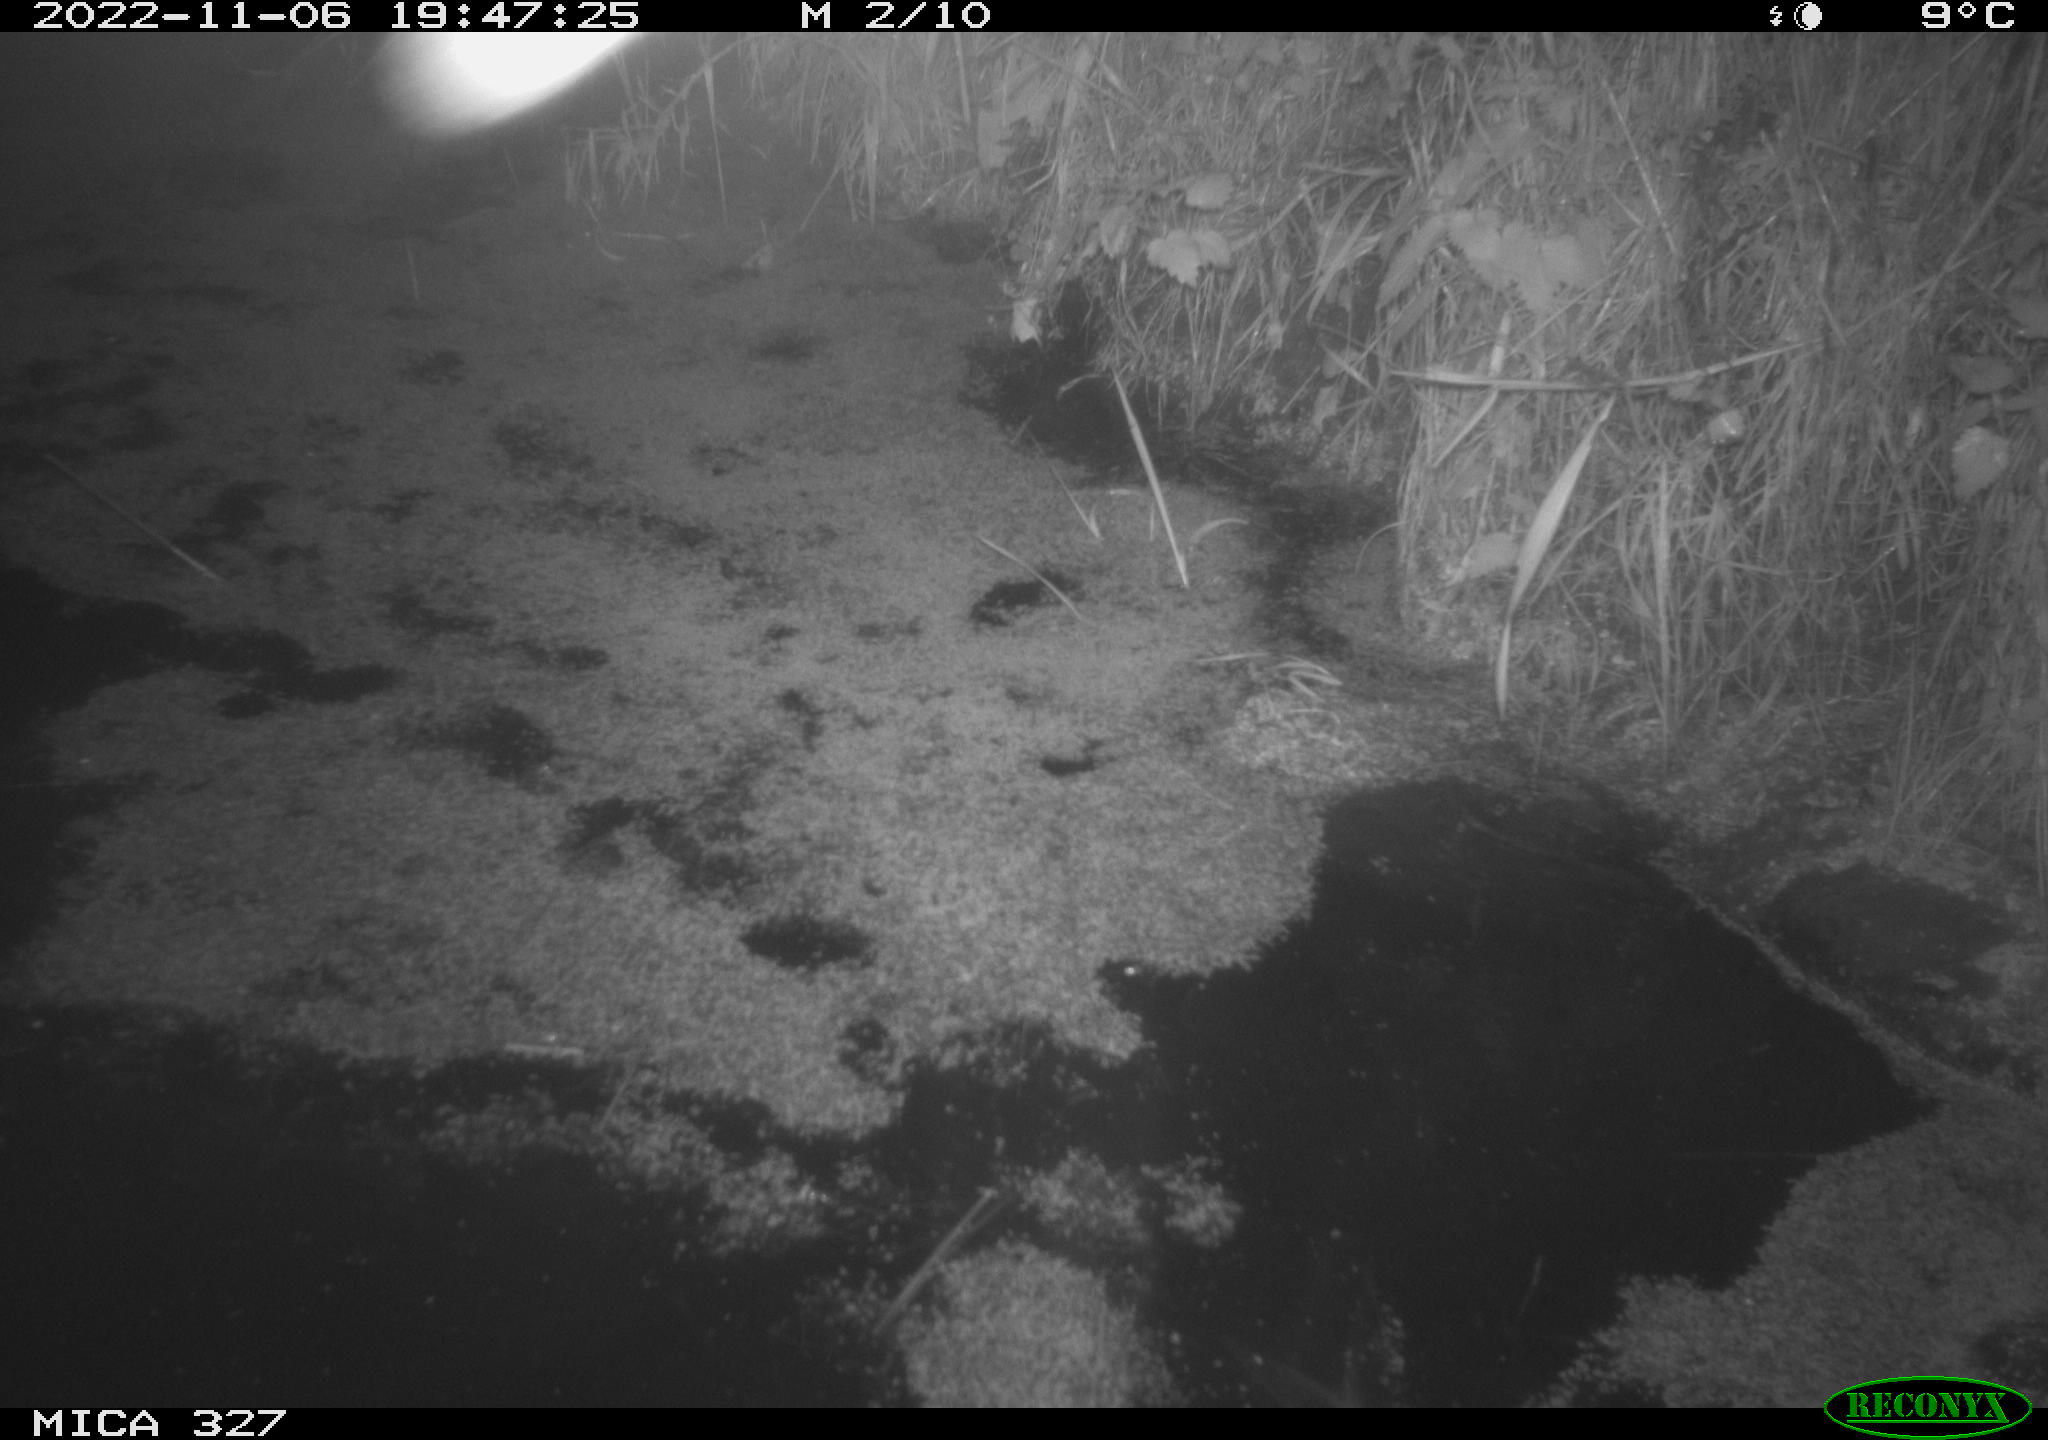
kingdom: Animalia
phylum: Chordata
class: Mammalia
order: Rodentia
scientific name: Rodentia
